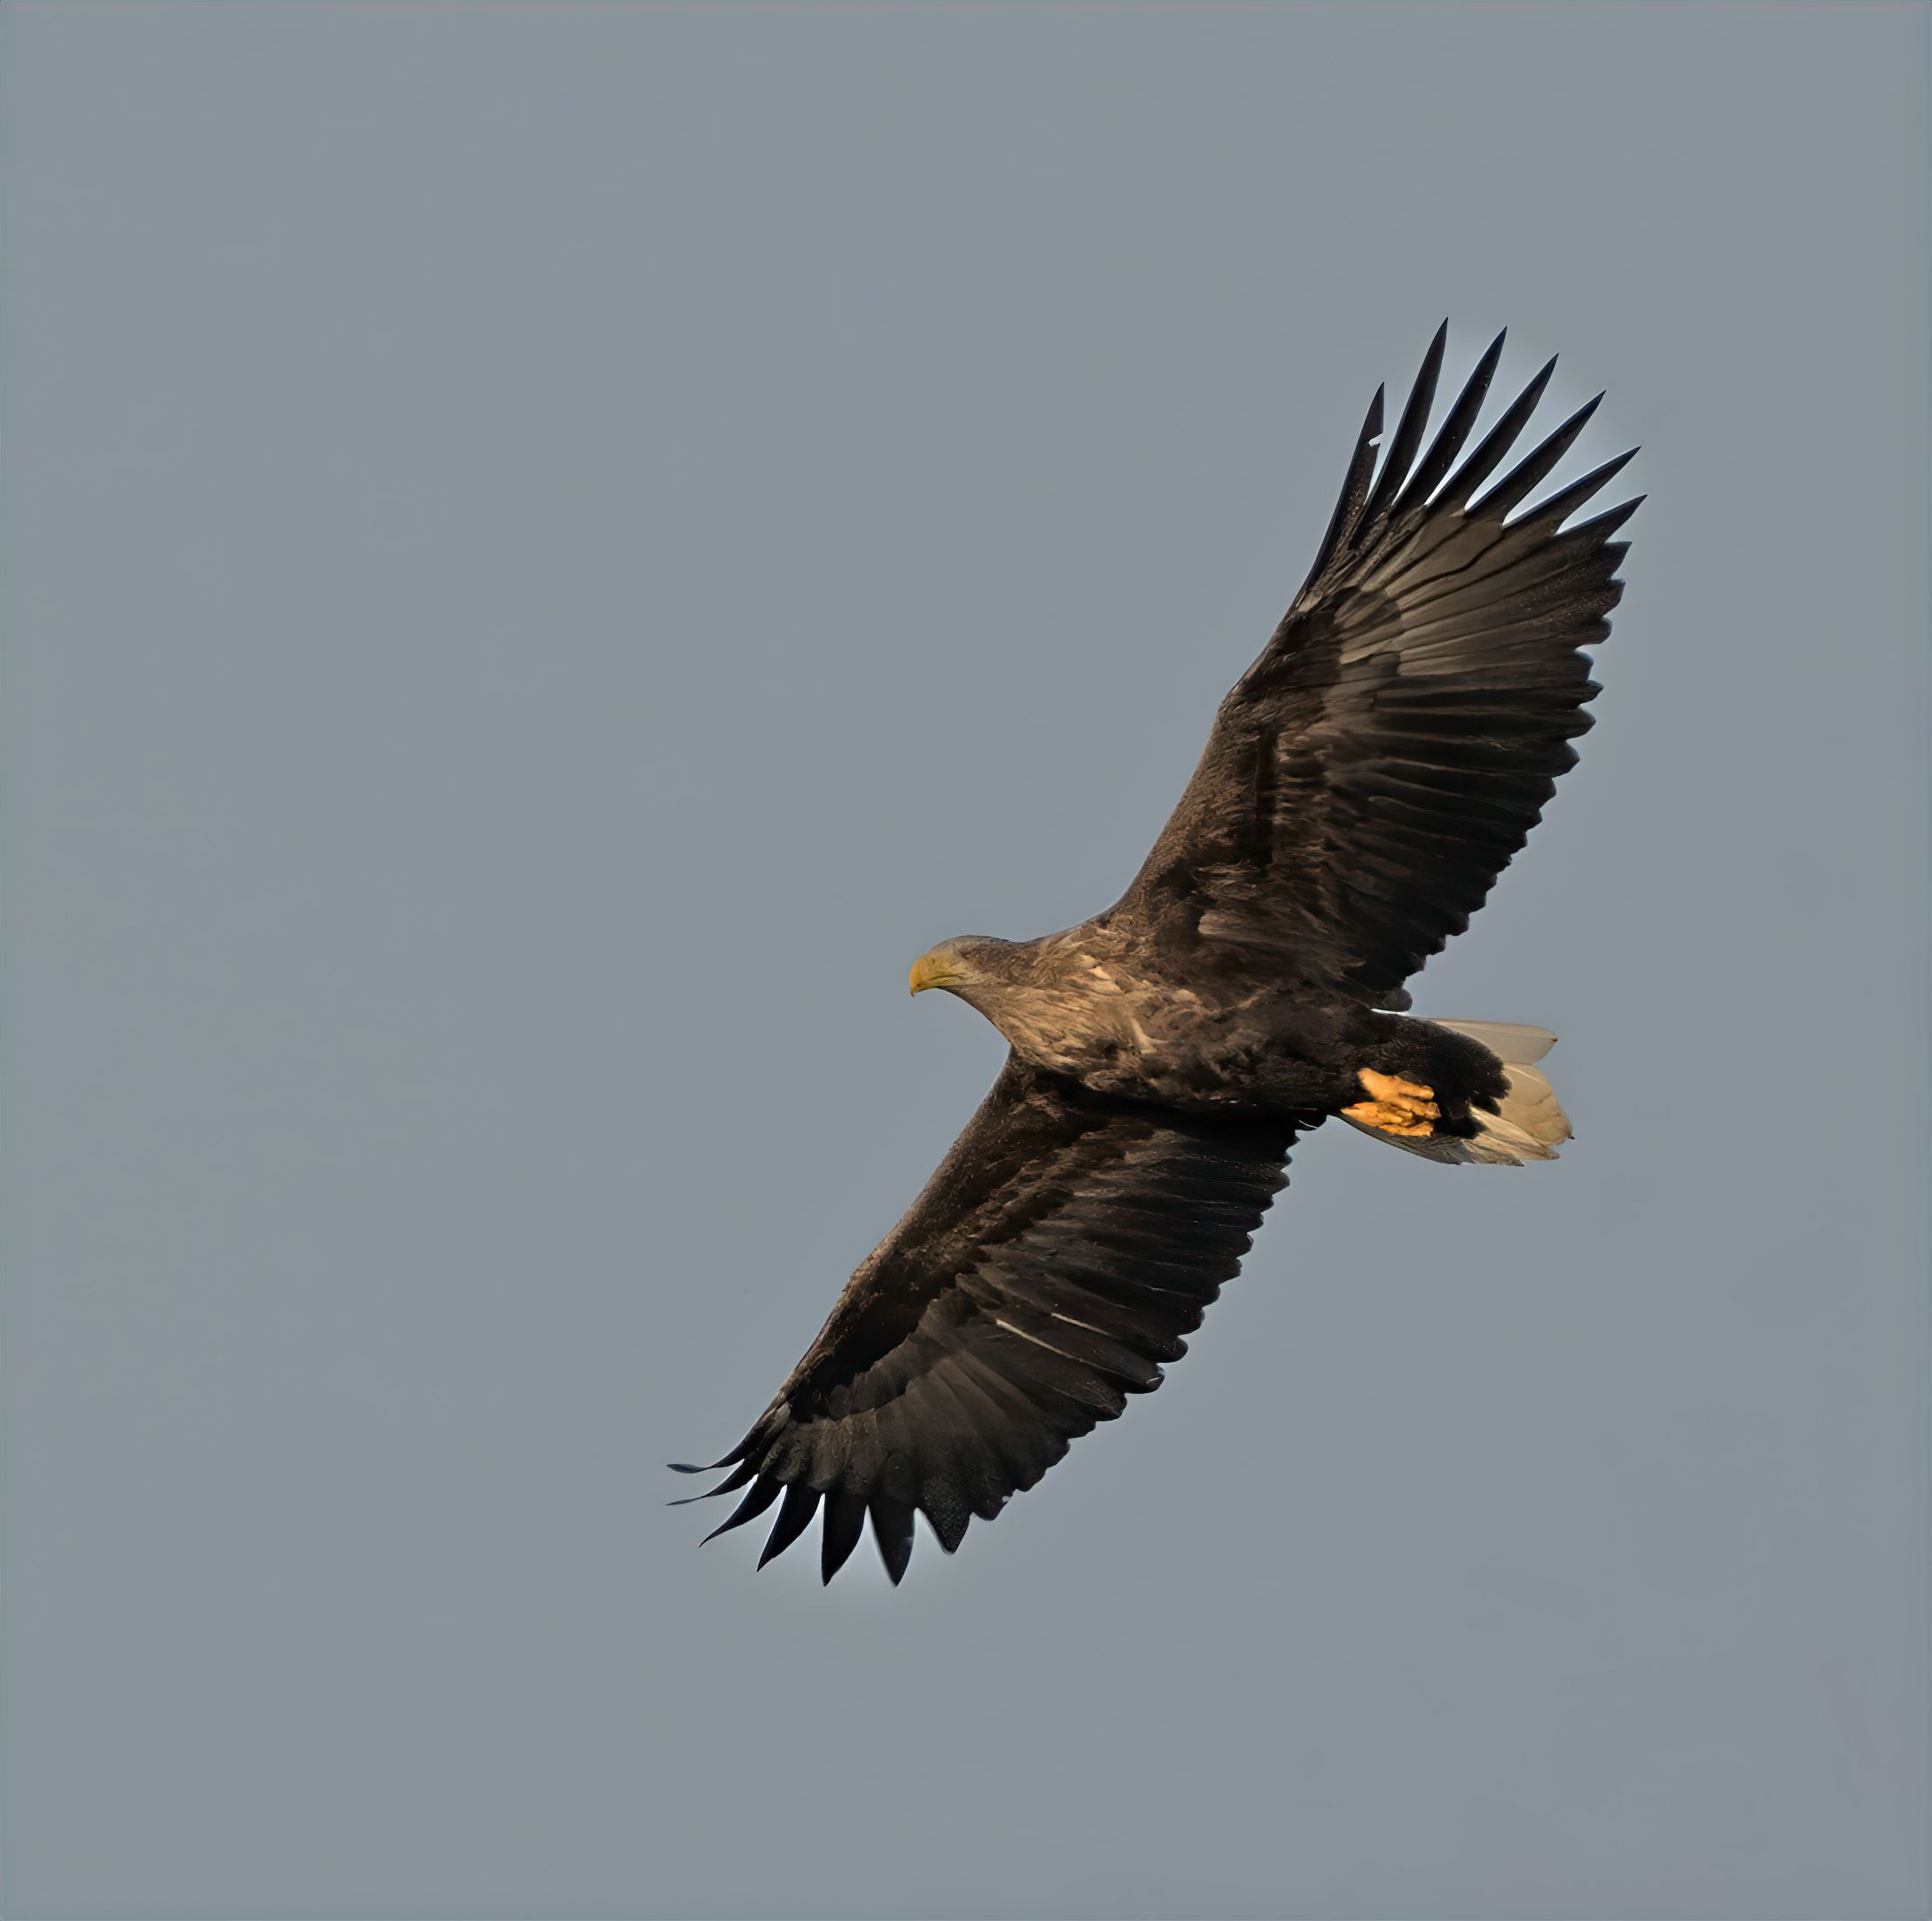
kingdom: Animalia
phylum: Chordata
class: Aves
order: Accipitriformes
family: Accipitridae
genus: Haliaeetus
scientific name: Haliaeetus albicilla
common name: Havørn
